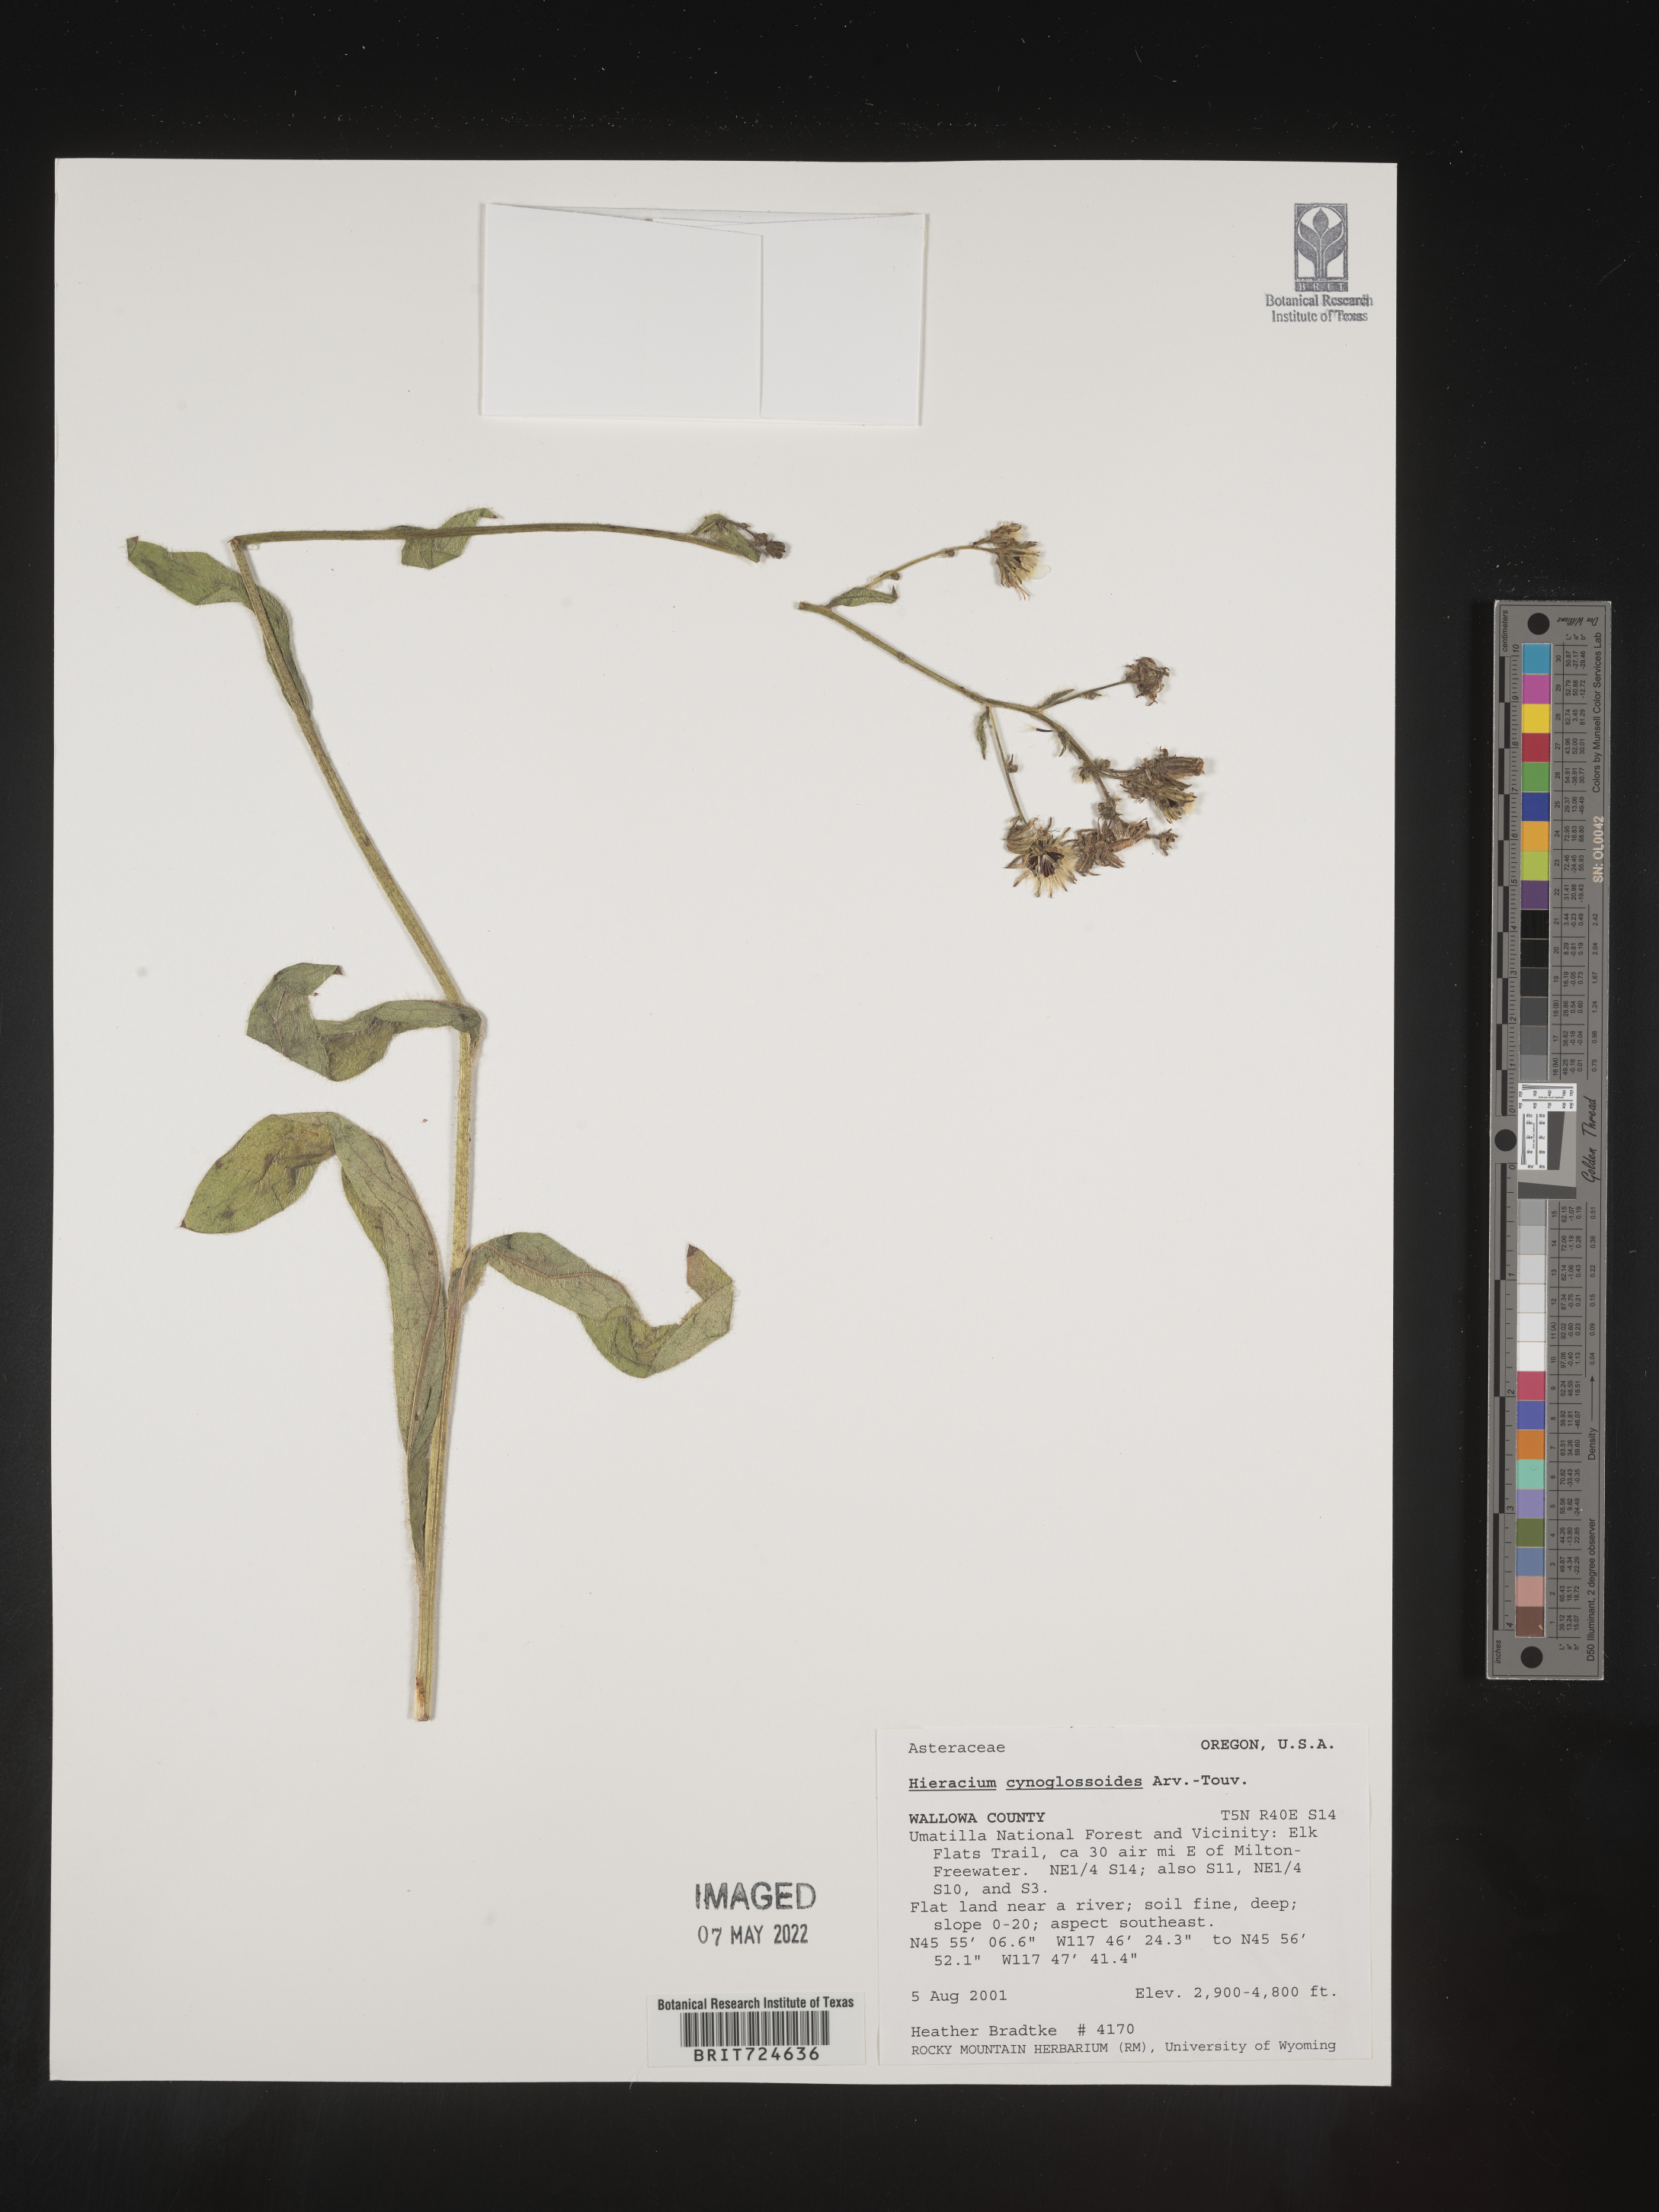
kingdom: Plantae
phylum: Tracheophyta
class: Magnoliopsida
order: Asterales
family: Asteraceae
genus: Hieracium
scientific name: Hieracium scouleri
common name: Hound's-tongue hawkweed
